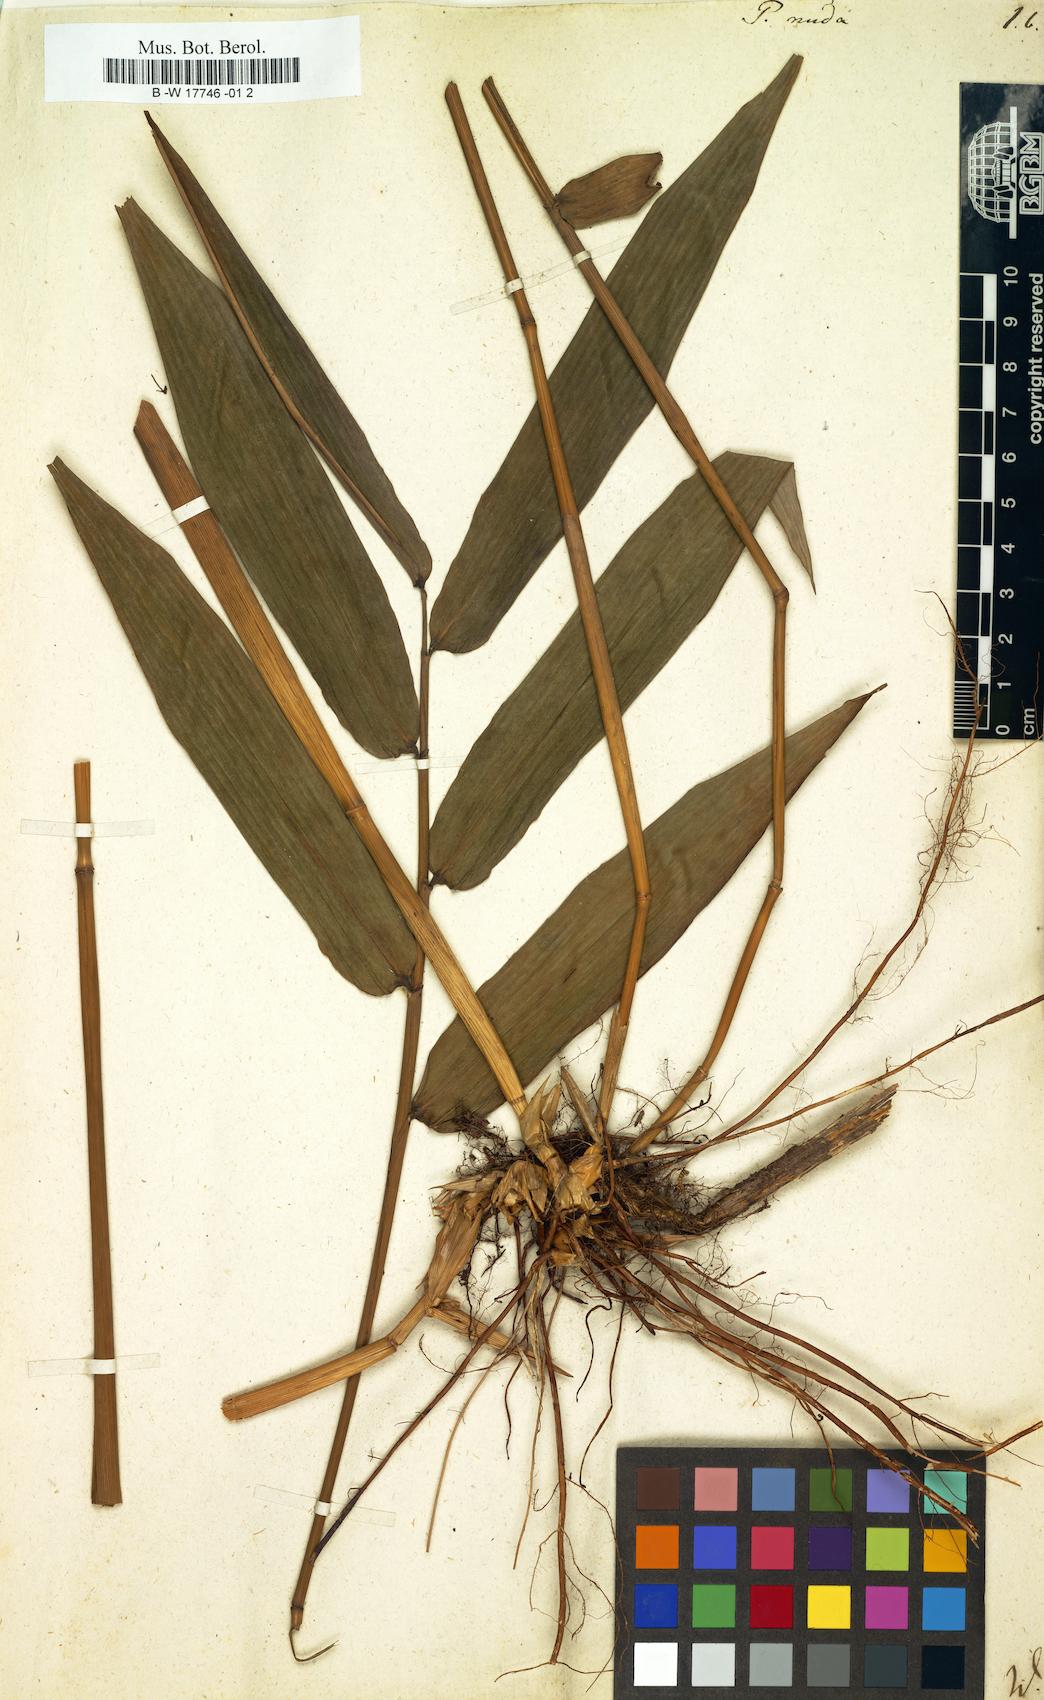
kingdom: Plantae
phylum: Tracheophyta
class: Liliopsida
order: Poales
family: Poaceae
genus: Pariana
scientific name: Pariana
